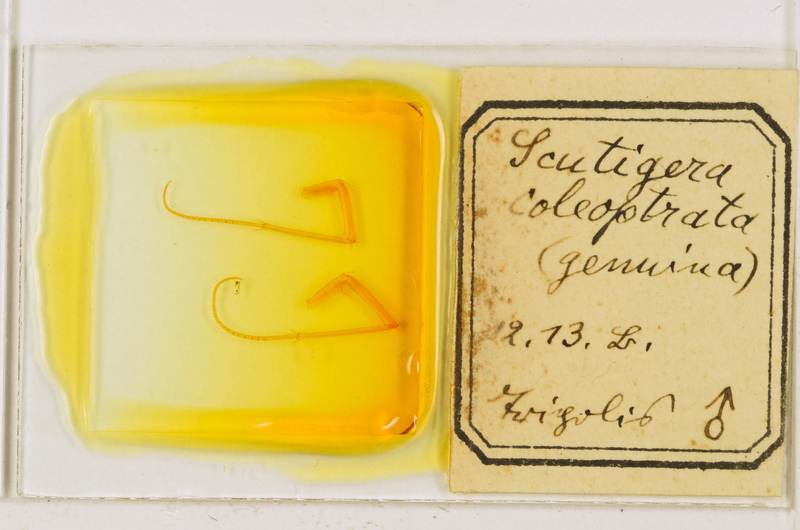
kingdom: Animalia
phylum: Arthropoda
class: Chilopoda
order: Scutigeromorpha
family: Scutigeridae
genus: Scutigera
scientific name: Scutigera coleoptrata
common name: House centipede
